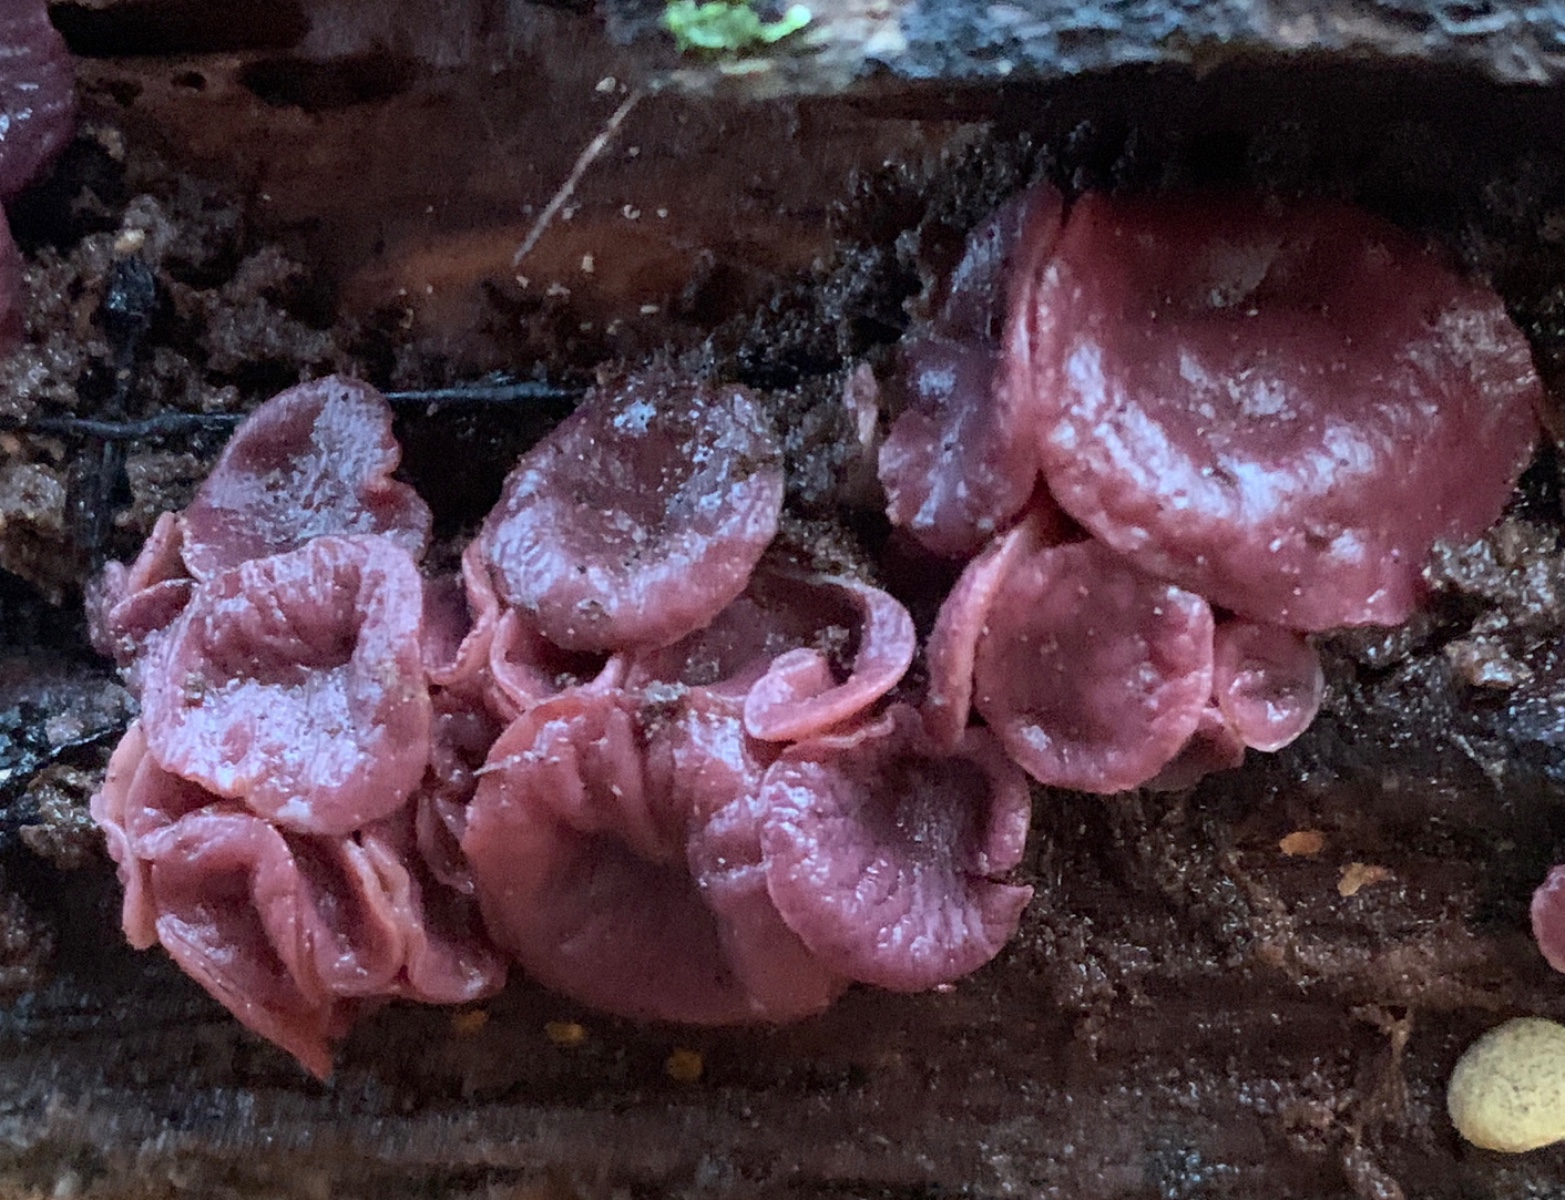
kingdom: Fungi
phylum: Ascomycota
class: Leotiomycetes
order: Helotiales
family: Gelatinodiscaceae
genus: Ascocoryne
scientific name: Ascocoryne cylichnium
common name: stor sejskive
